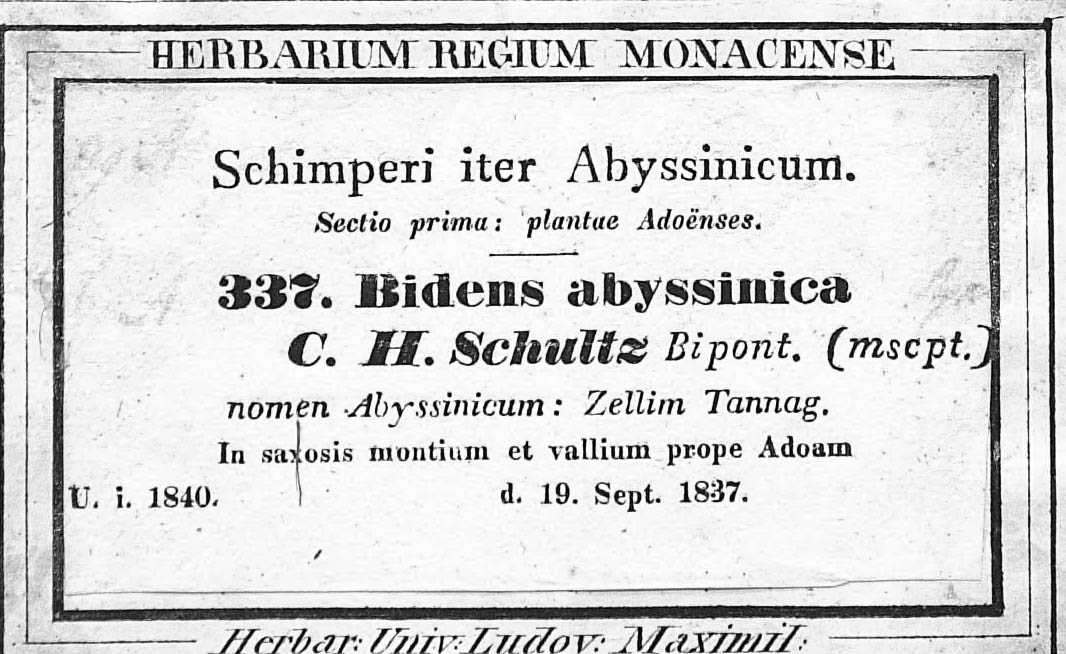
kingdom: Plantae
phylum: Tracheophyta
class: Magnoliopsida
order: Asterales
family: Asteraceae
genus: Bidens
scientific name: Bidens biternata
